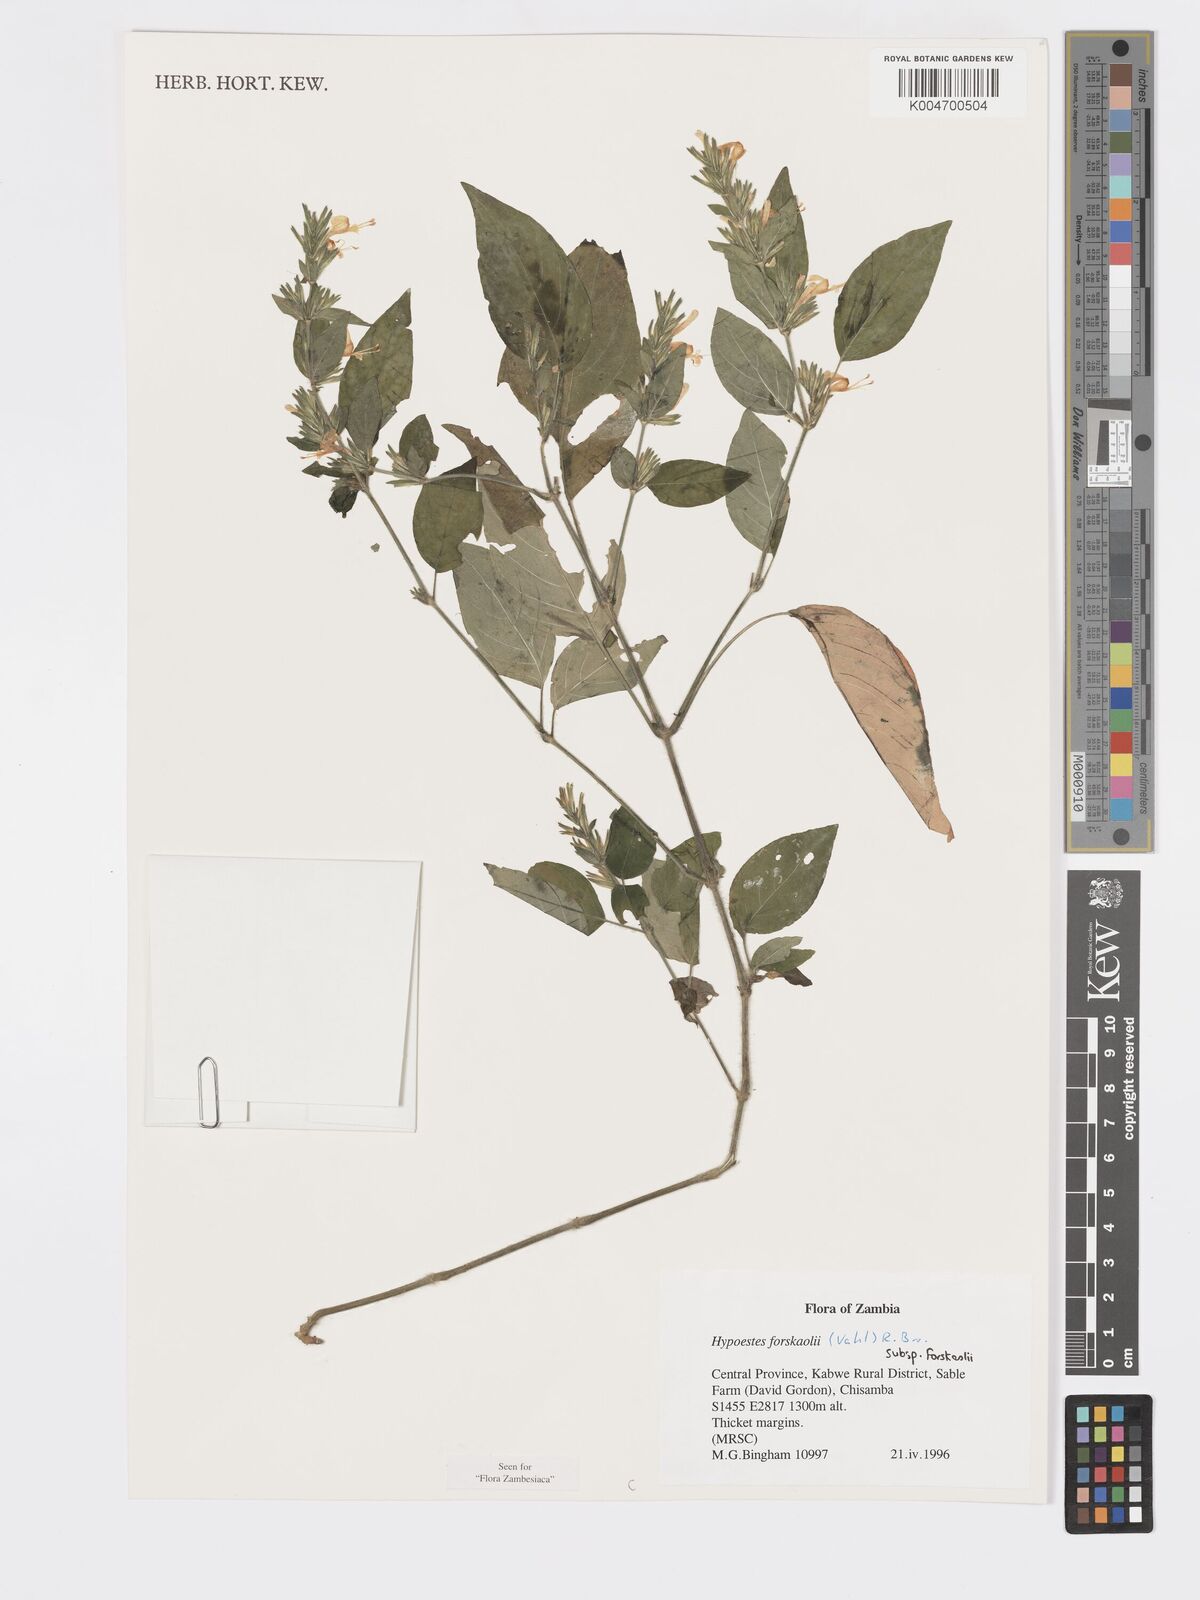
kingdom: Plantae
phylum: Tracheophyta
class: Magnoliopsida
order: Lamiales
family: Acanthaceae
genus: Hypoestes
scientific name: Hypoestes forskaolii
